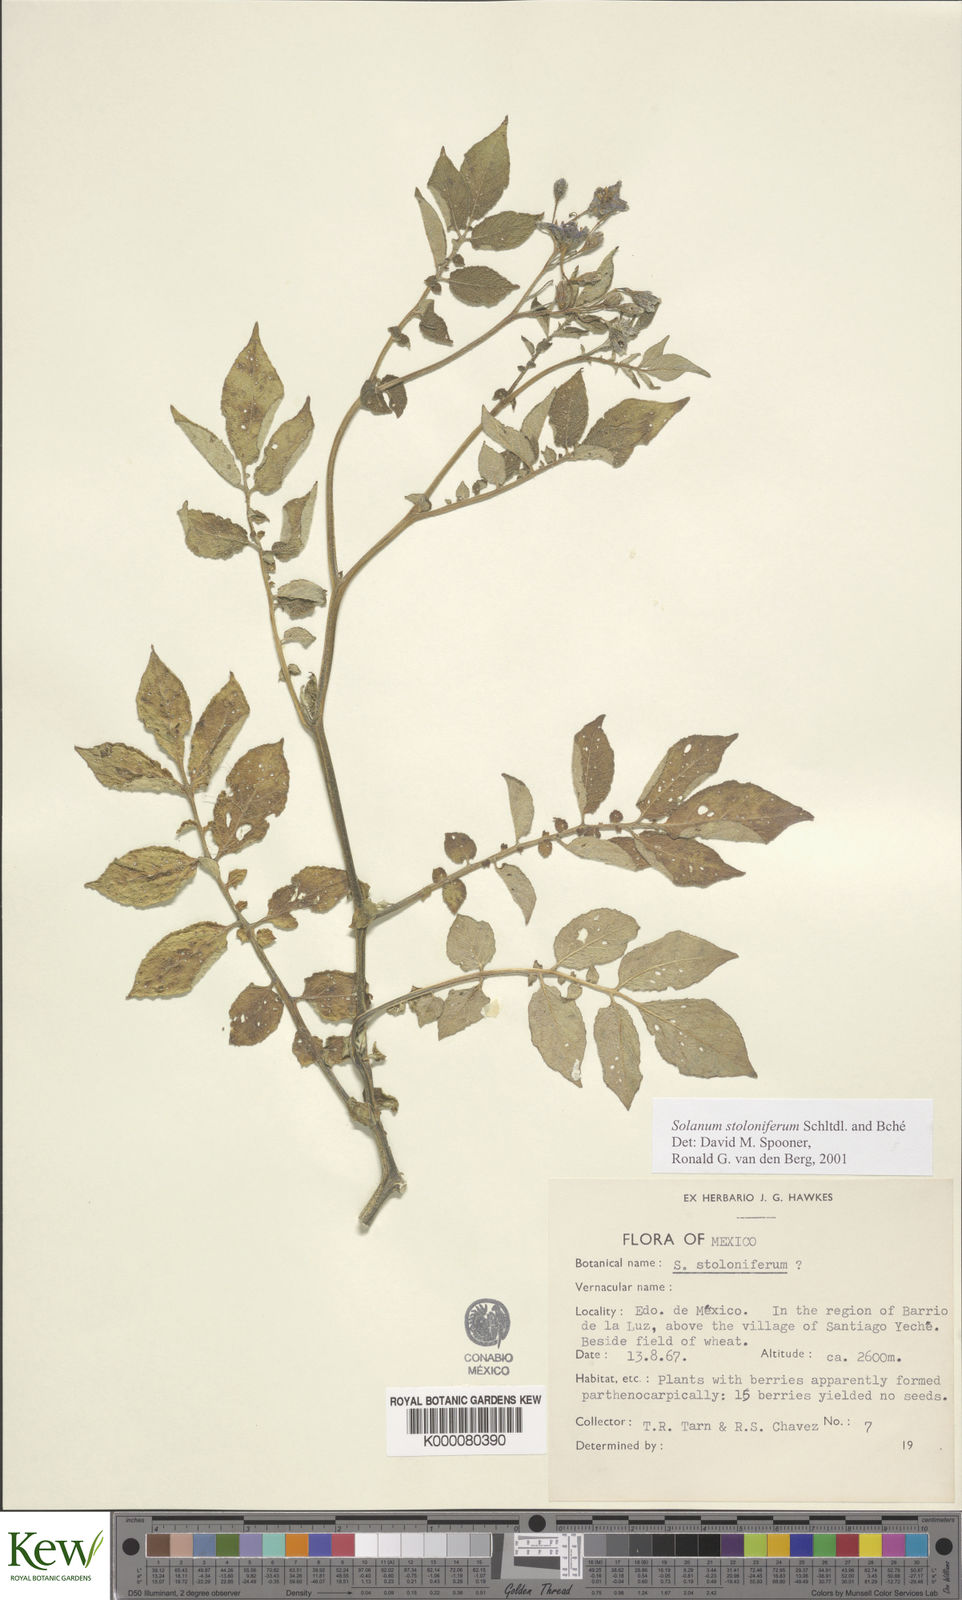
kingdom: Plantae
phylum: Tracheophyta
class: Magnoliopsida
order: Solanales
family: Solanaceae
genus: Solanum
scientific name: Solanum stoloniferum
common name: Fendler's nighshade
